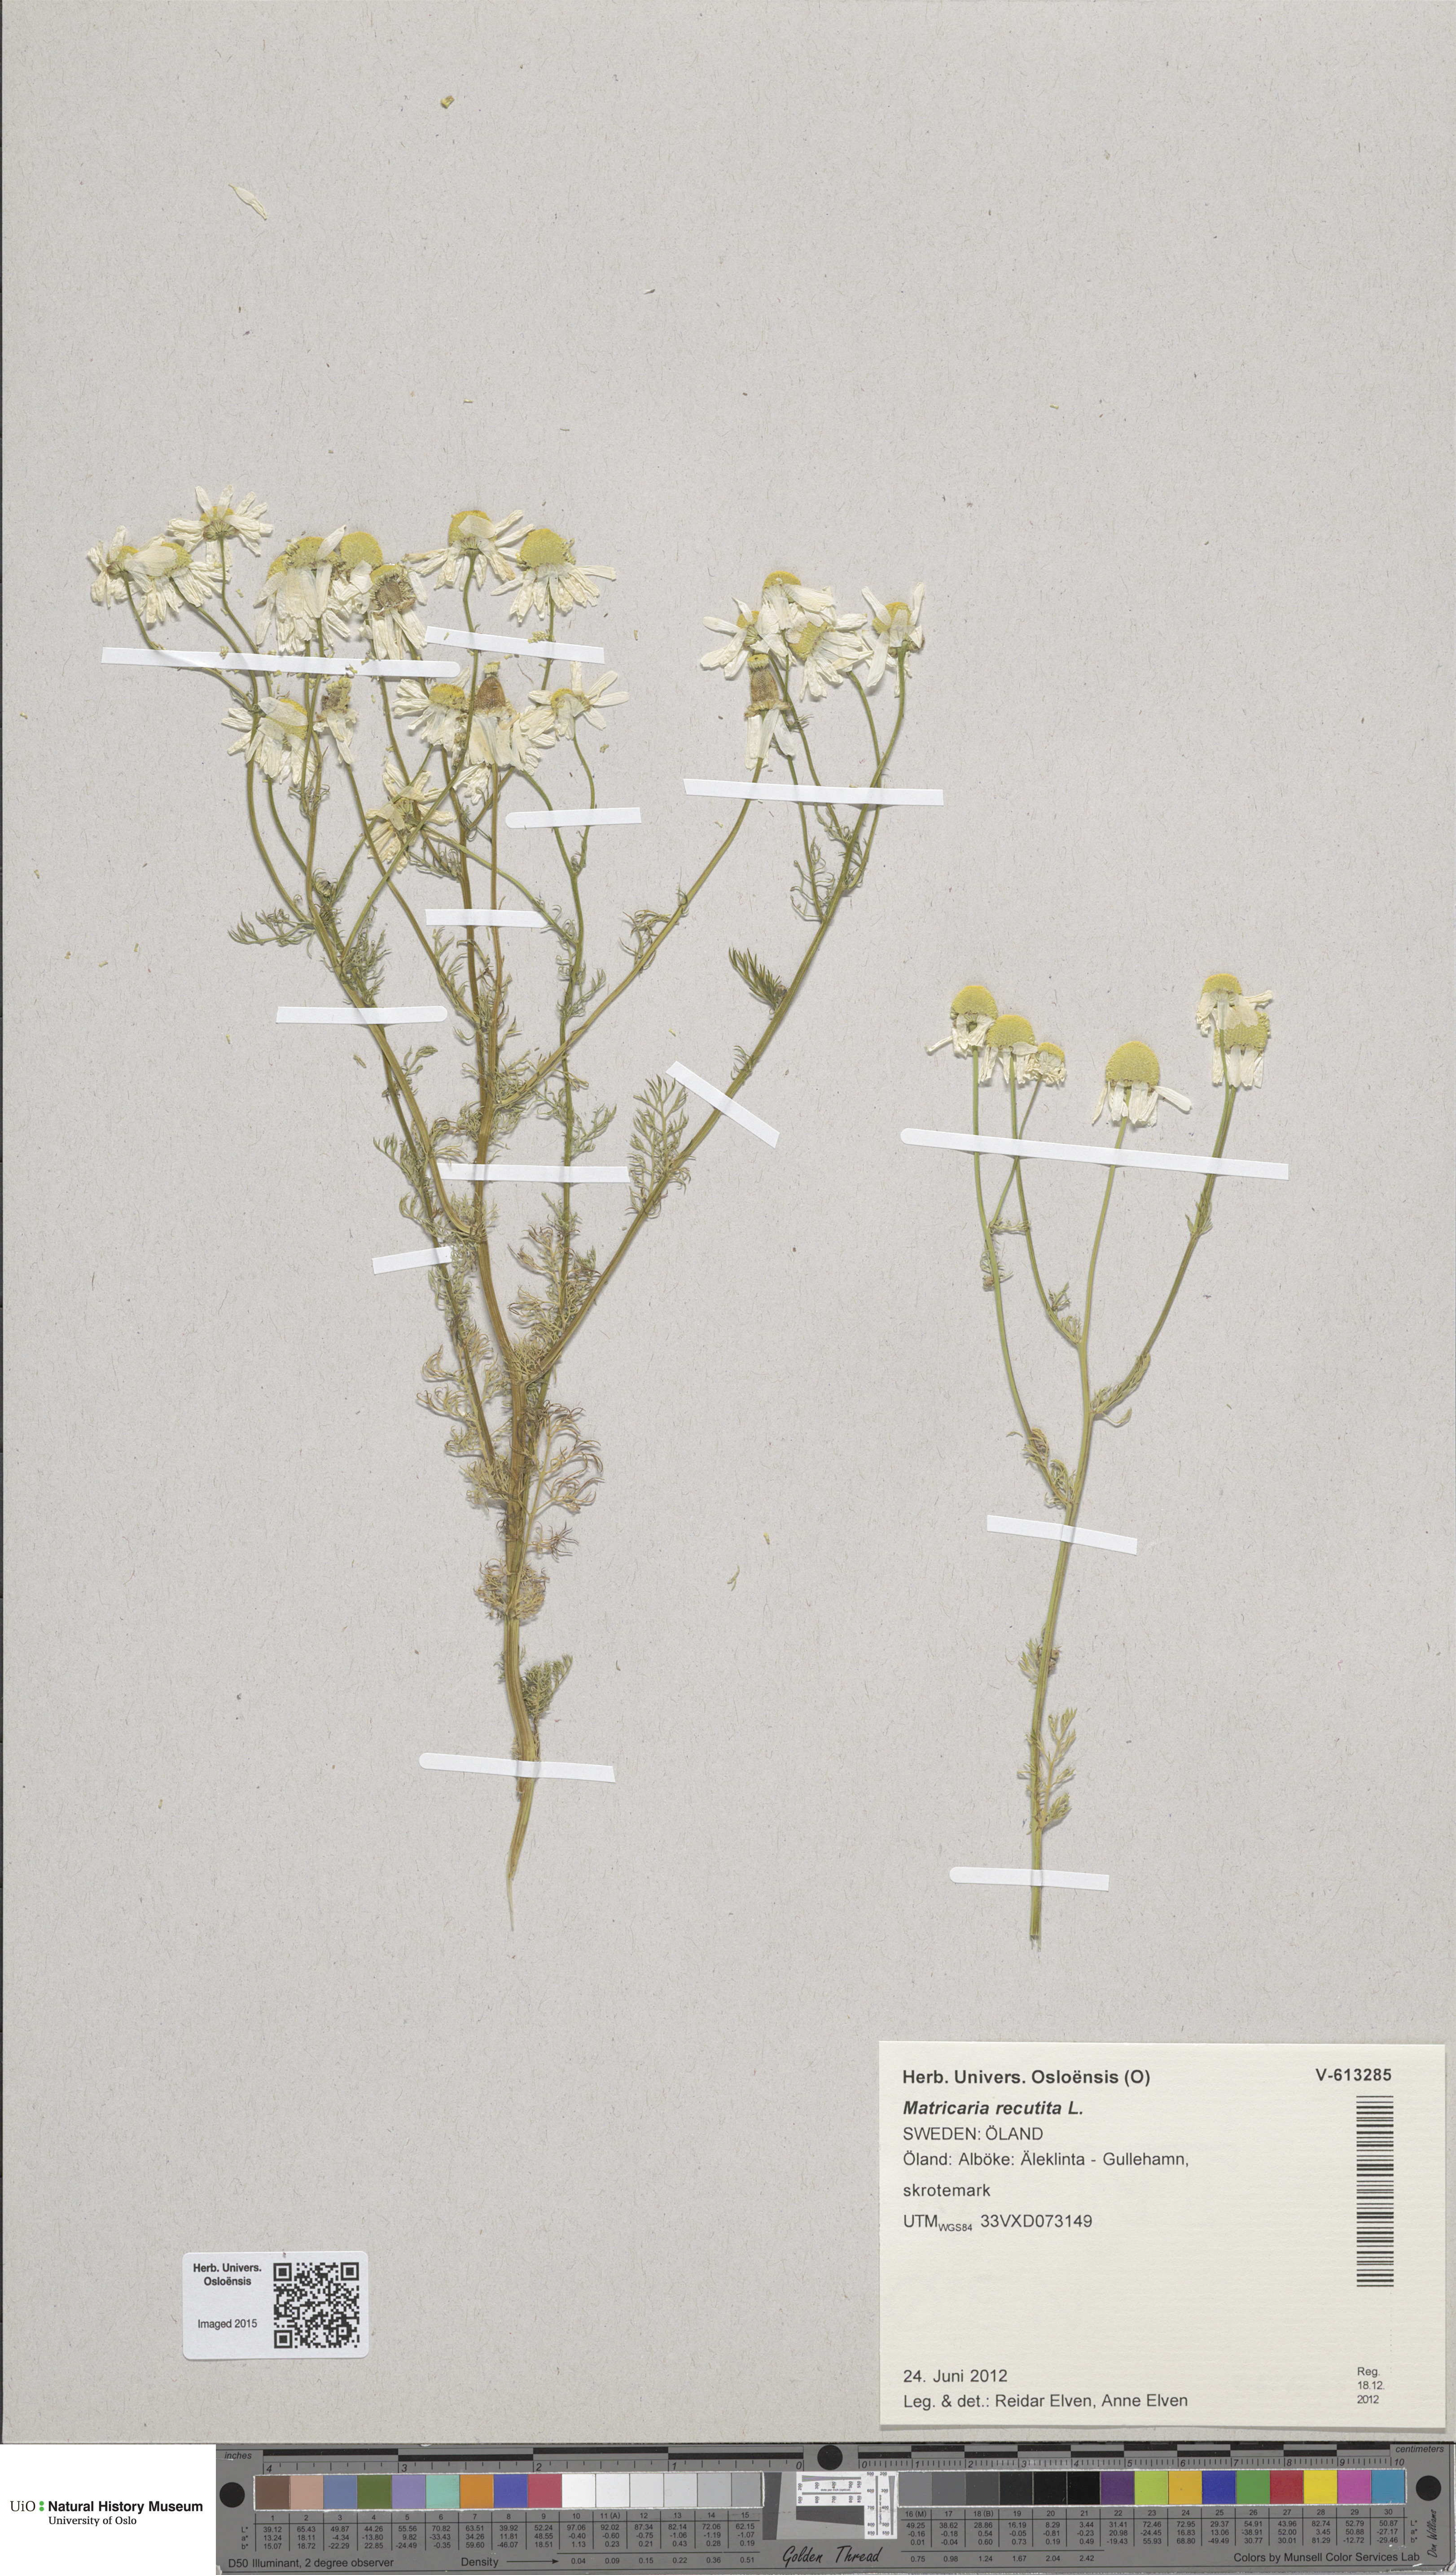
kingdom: Plantae
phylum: Tracheophyta
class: Magnoliopsida
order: Asterales
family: Asteraceae
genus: Matricaria
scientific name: Matricaria chamomilla
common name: Scented mayweed
